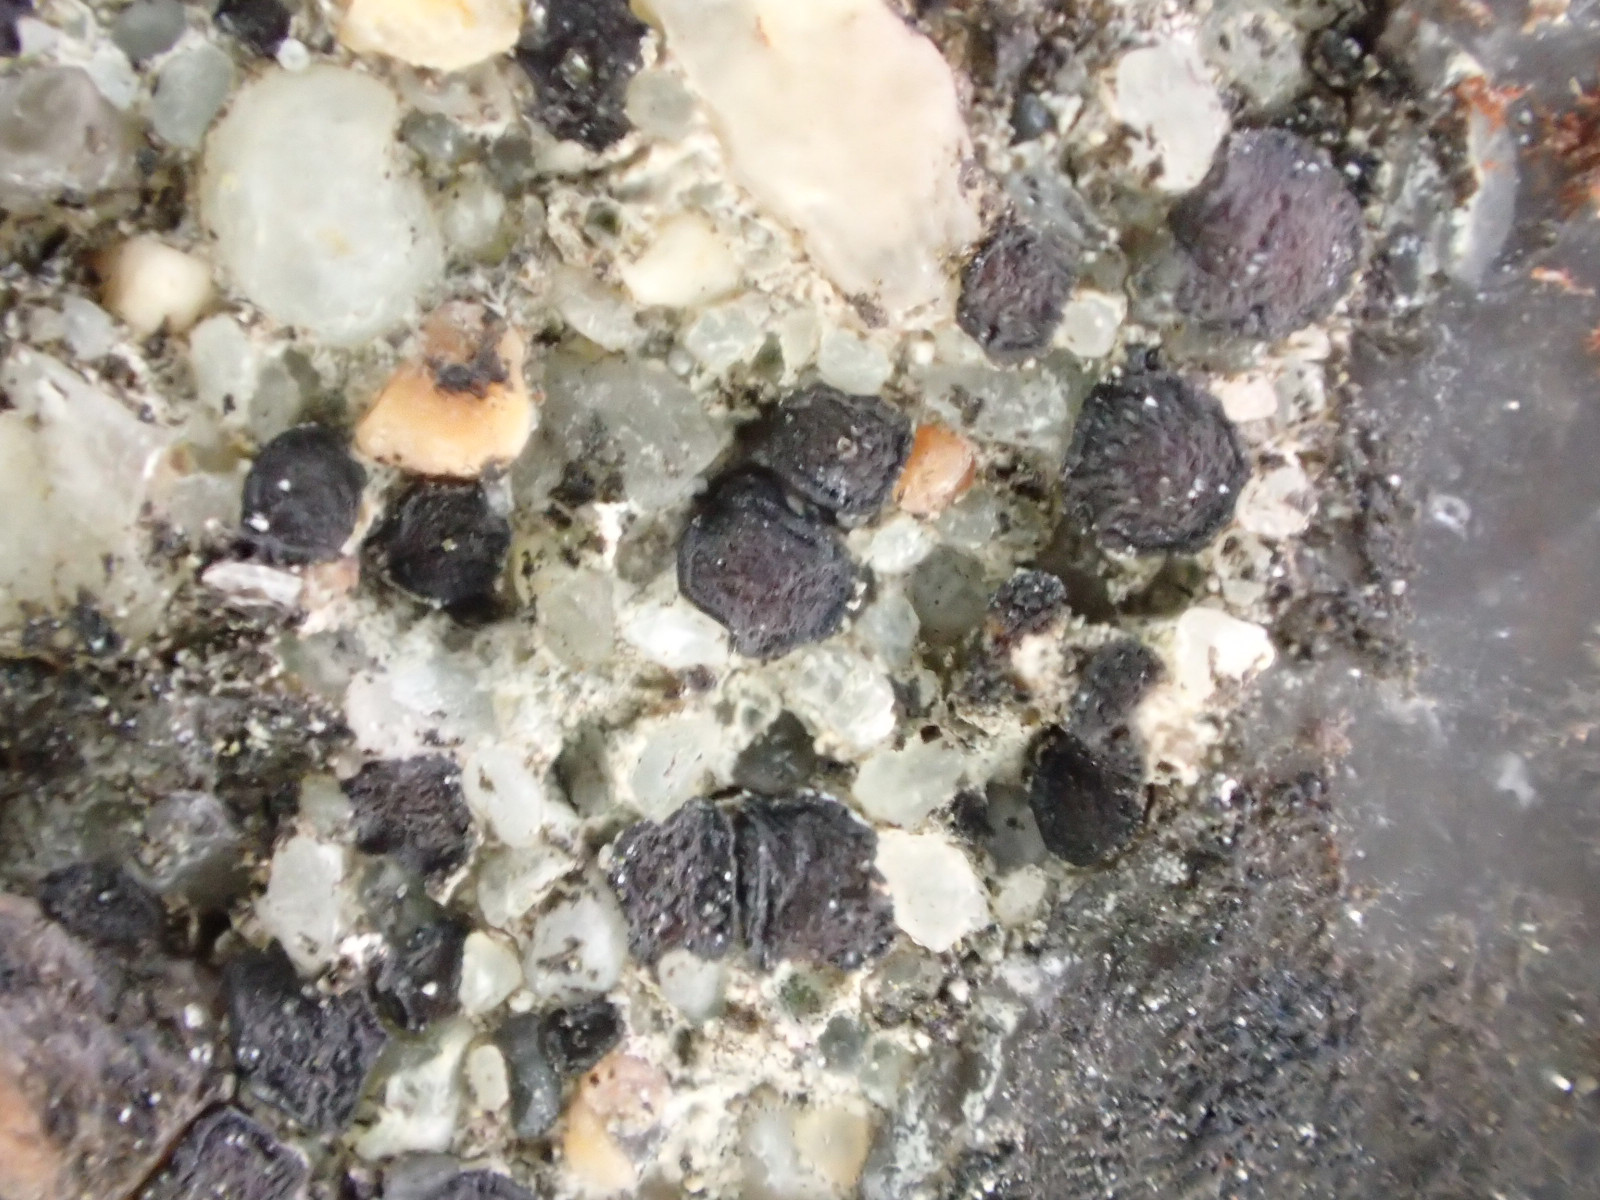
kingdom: Fungi
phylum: Ascomycota
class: Lecanoromycetes
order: Acarosporales
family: Acarosporaceae
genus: Sarcogyne
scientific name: Sarcogyne regularis
